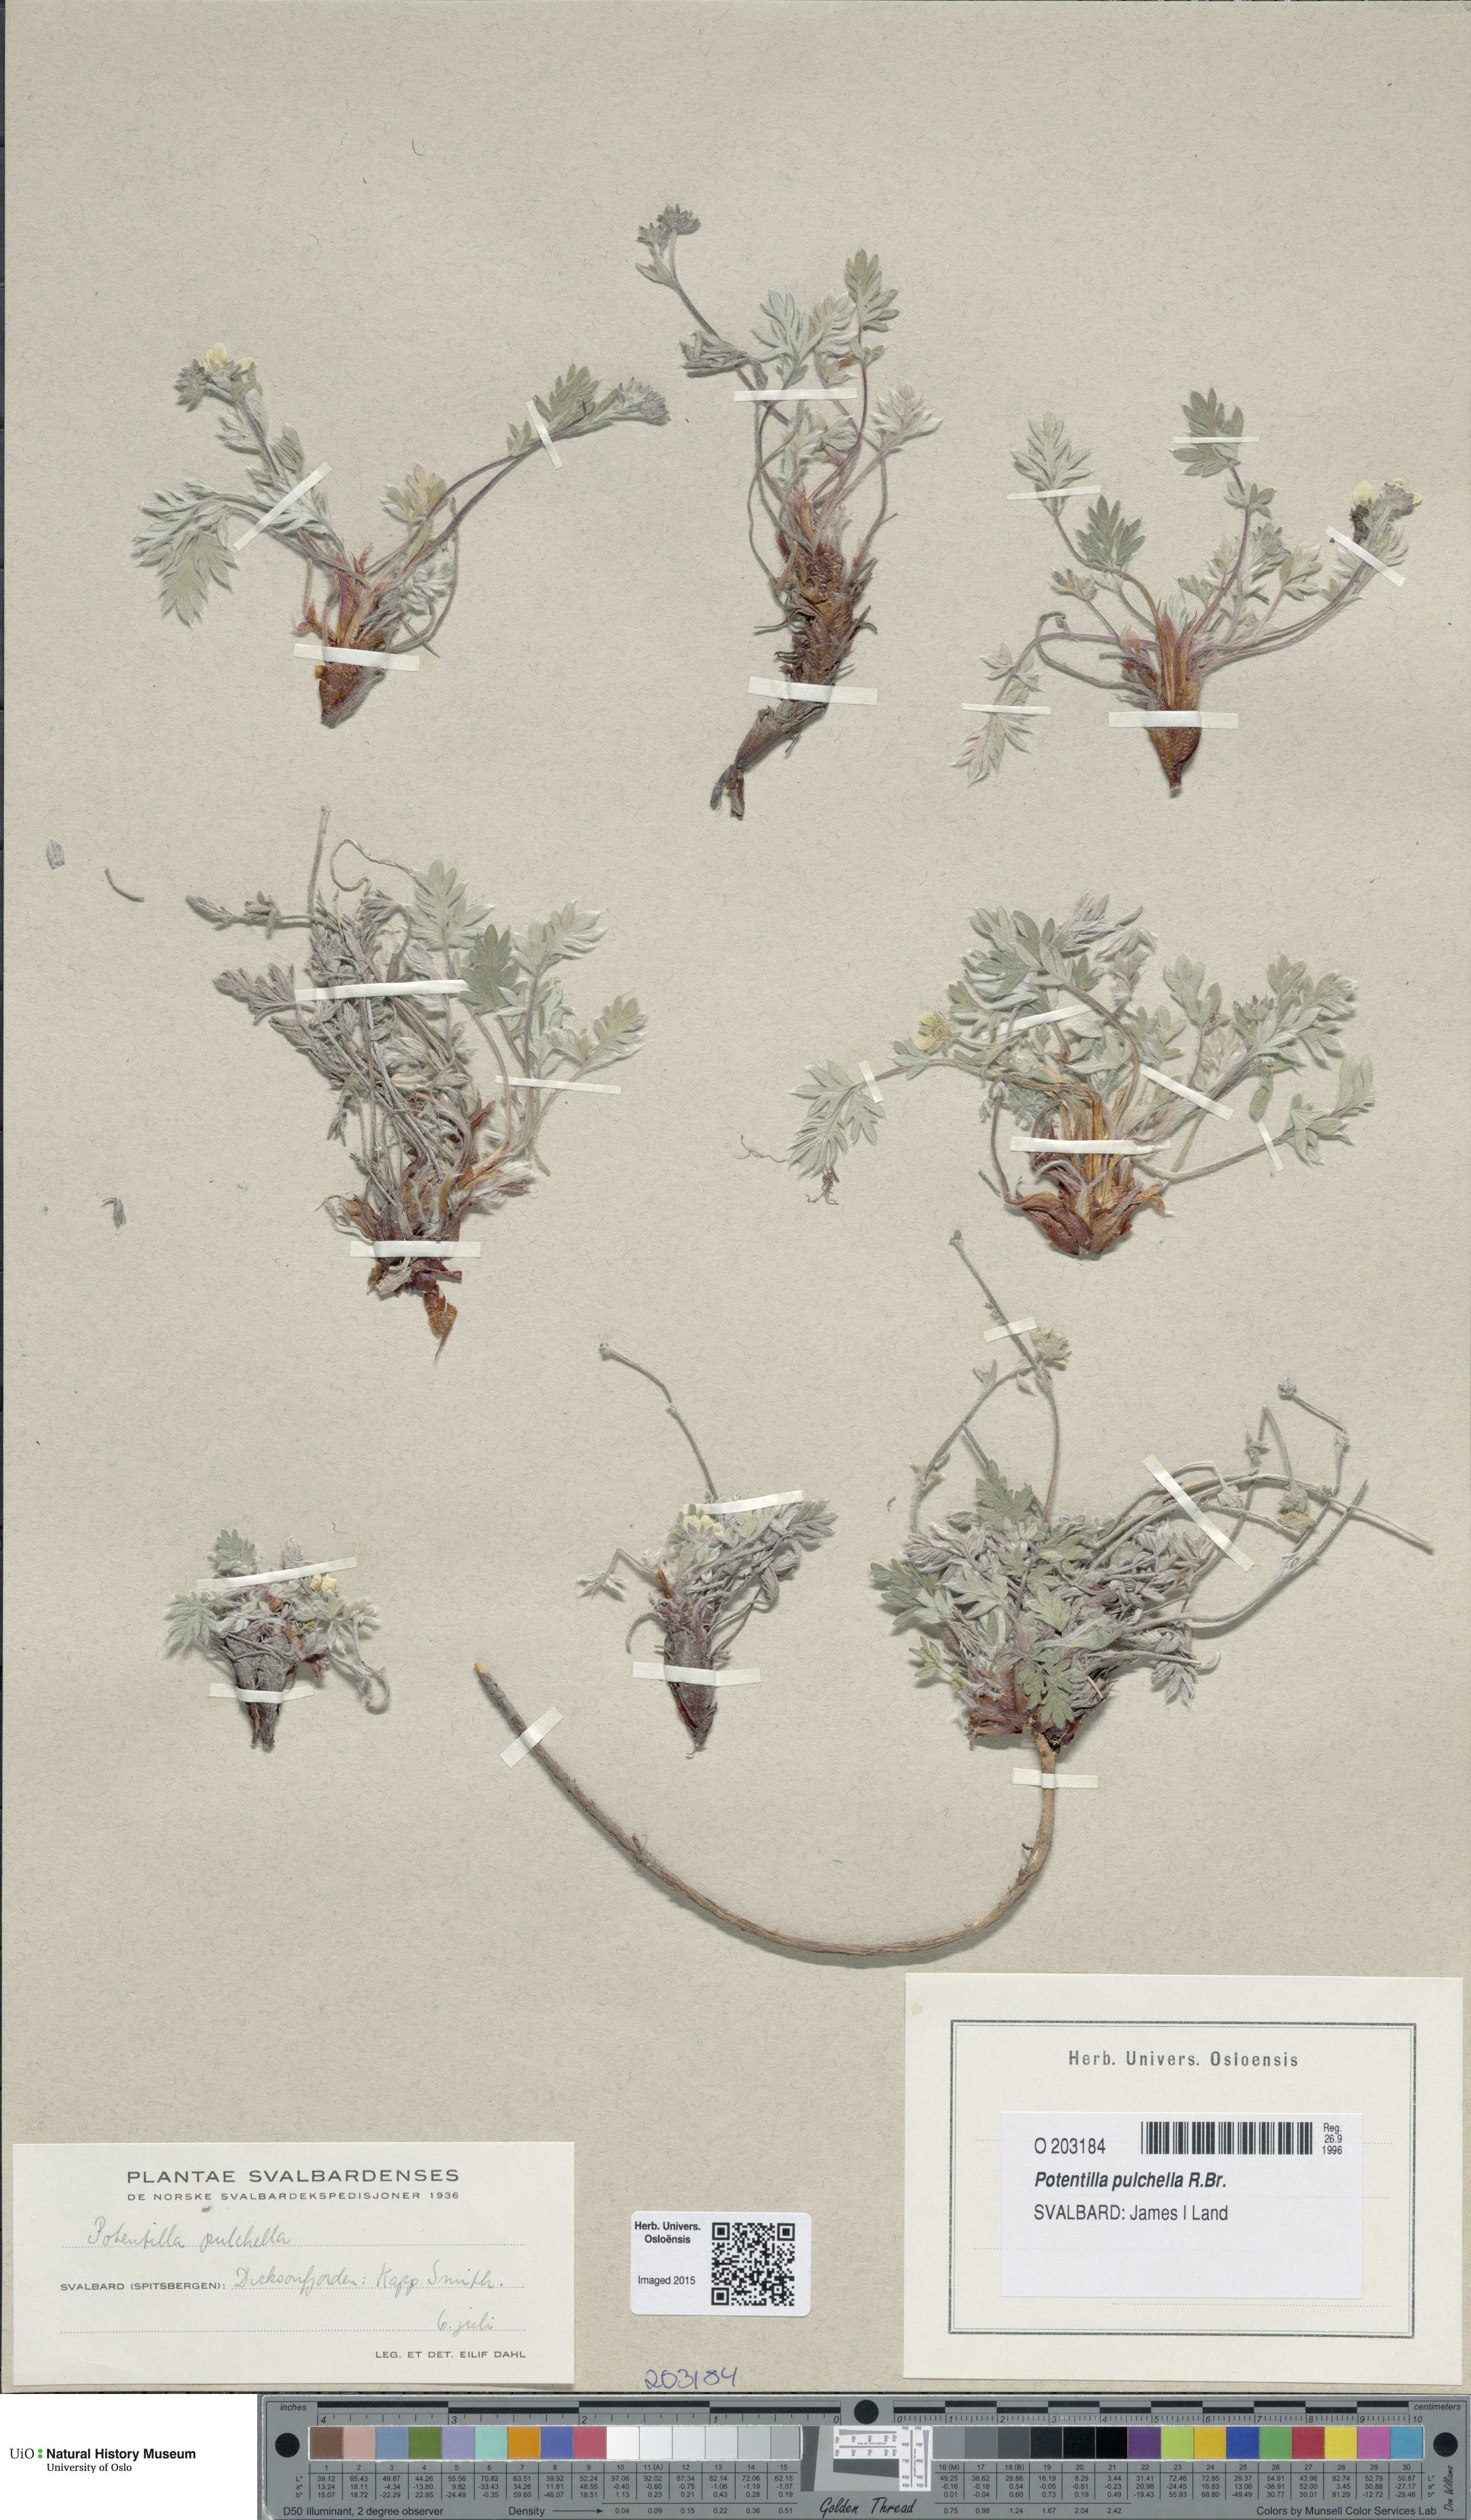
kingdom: Plantae
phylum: Tracheophyta
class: Magnoliopsida
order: Rosales
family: Rosaceae
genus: Potentilla
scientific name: Potentilla pulchella
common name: Pretty cinquefoil
